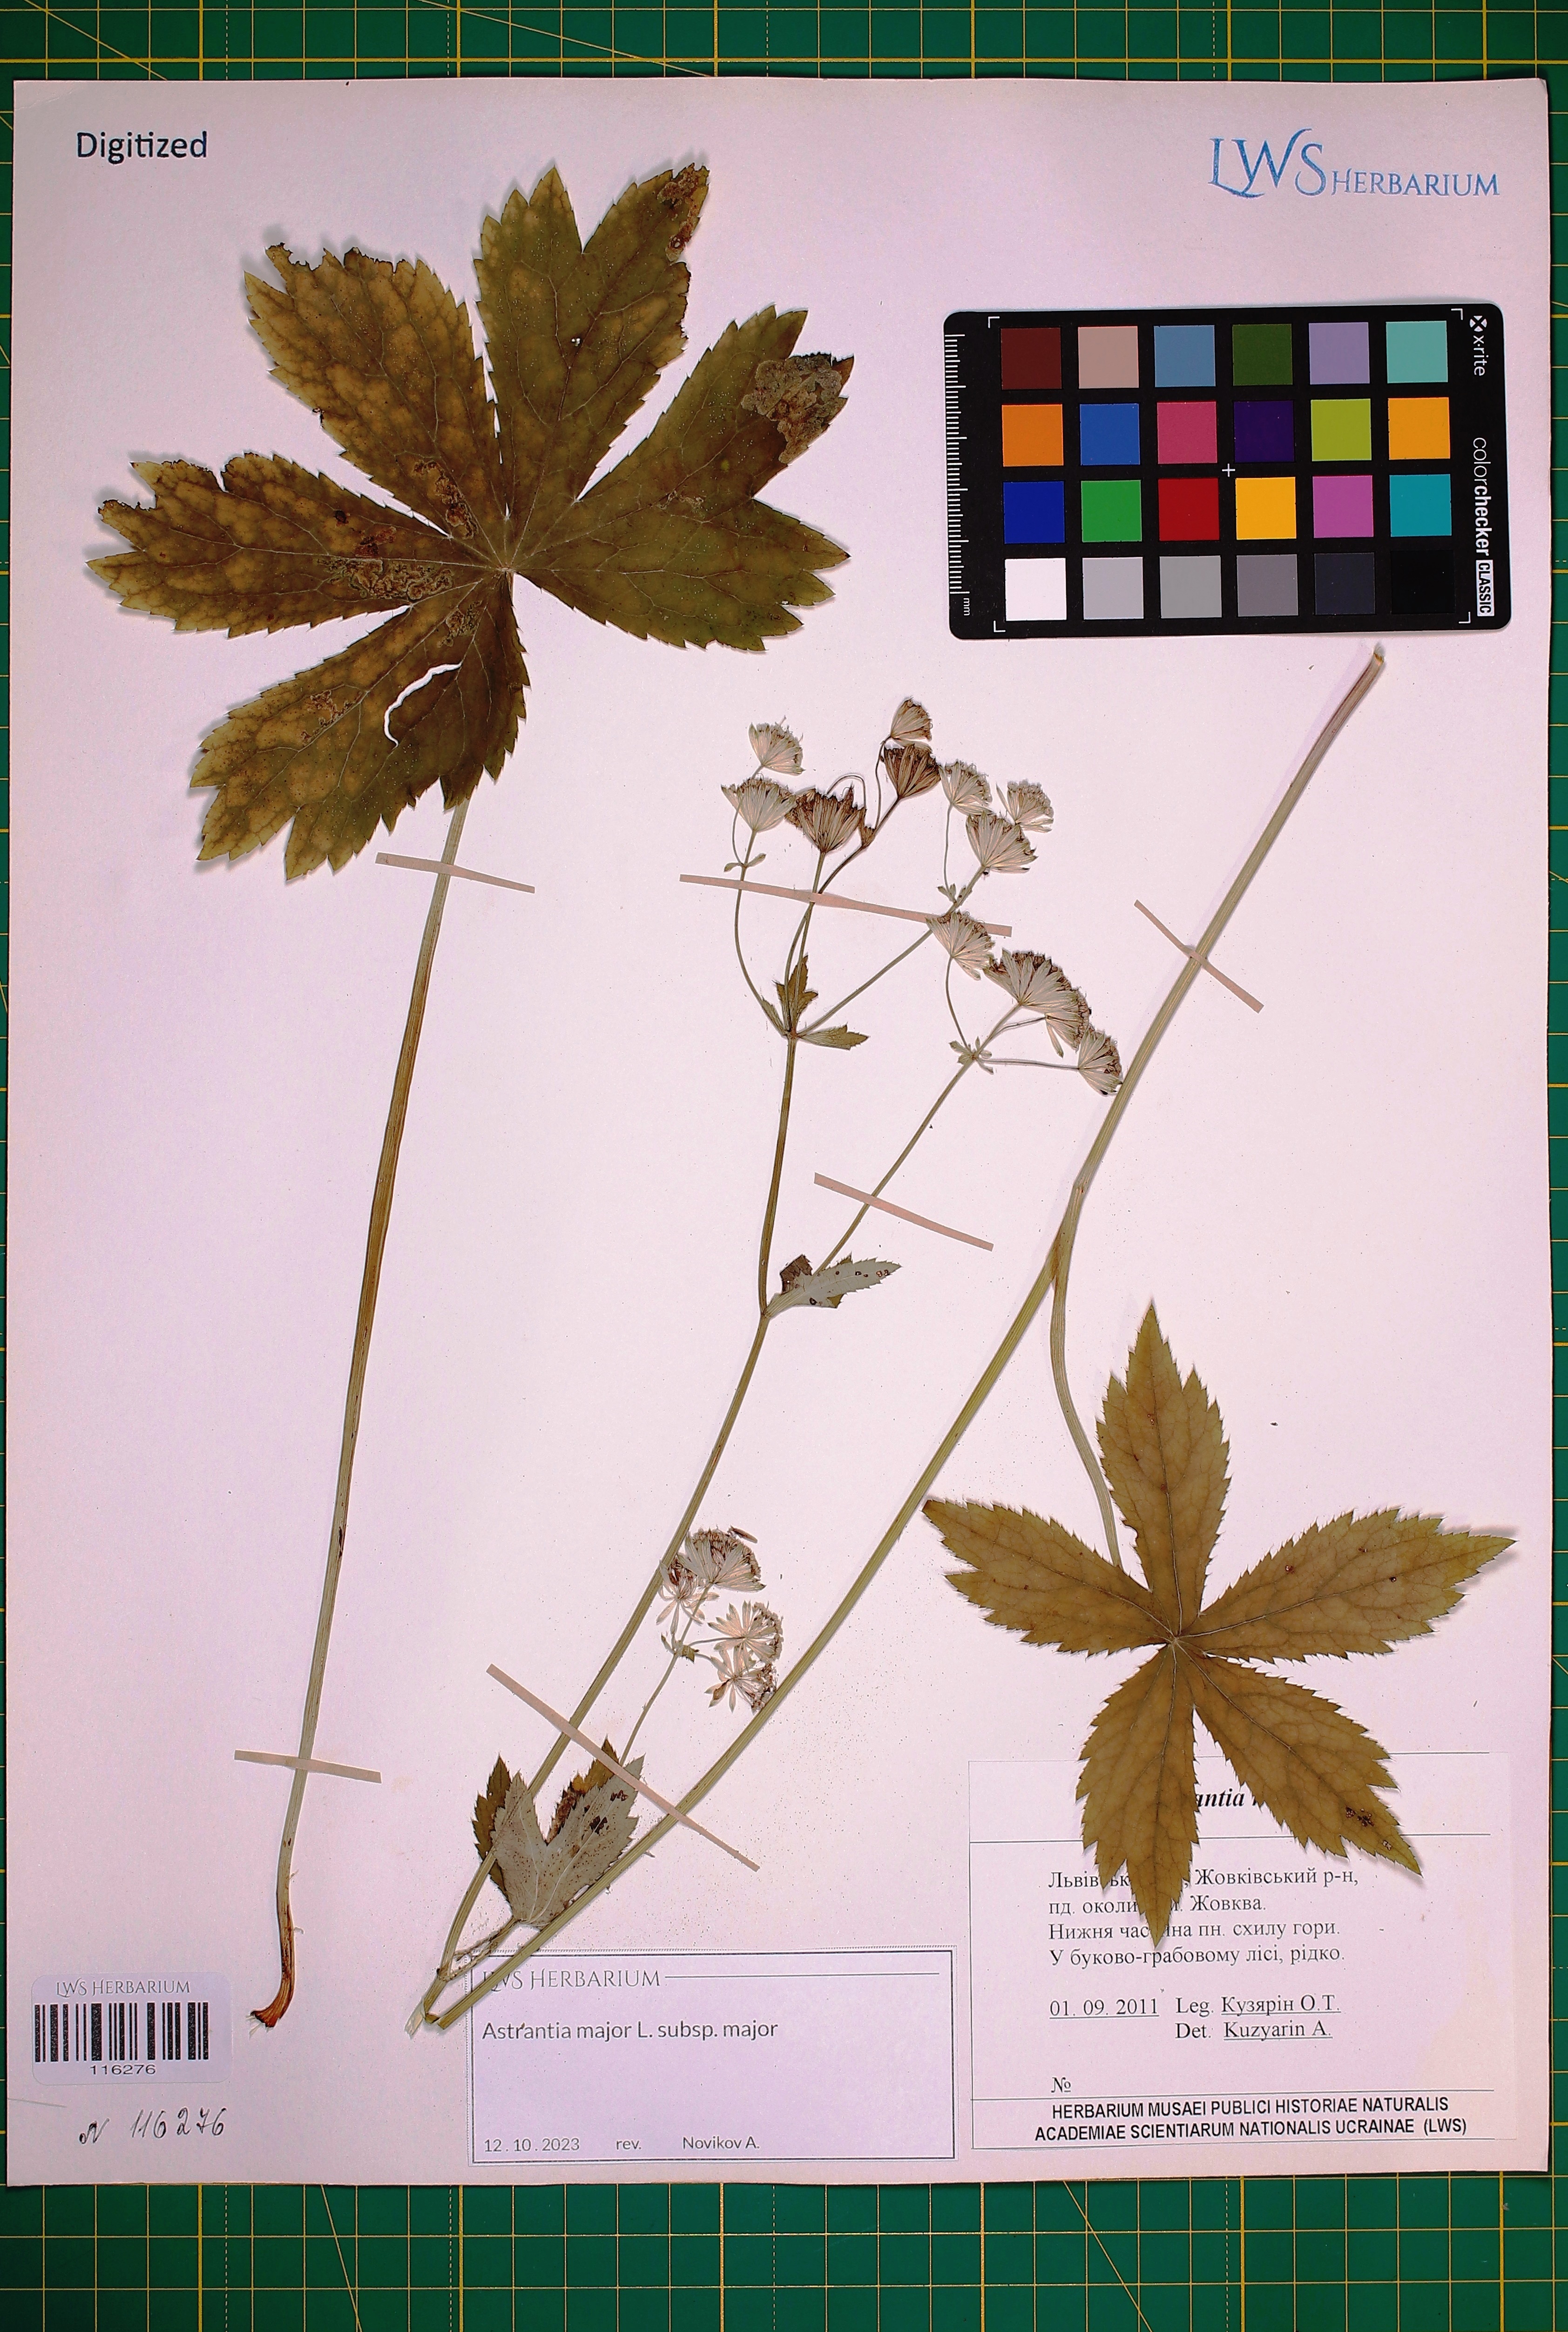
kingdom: Plantae
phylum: Tracheophyta
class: Magnoliopsida
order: Apiales
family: Apiaceae
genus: Astrantia
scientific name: Astrantia major
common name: Greater masterwort
